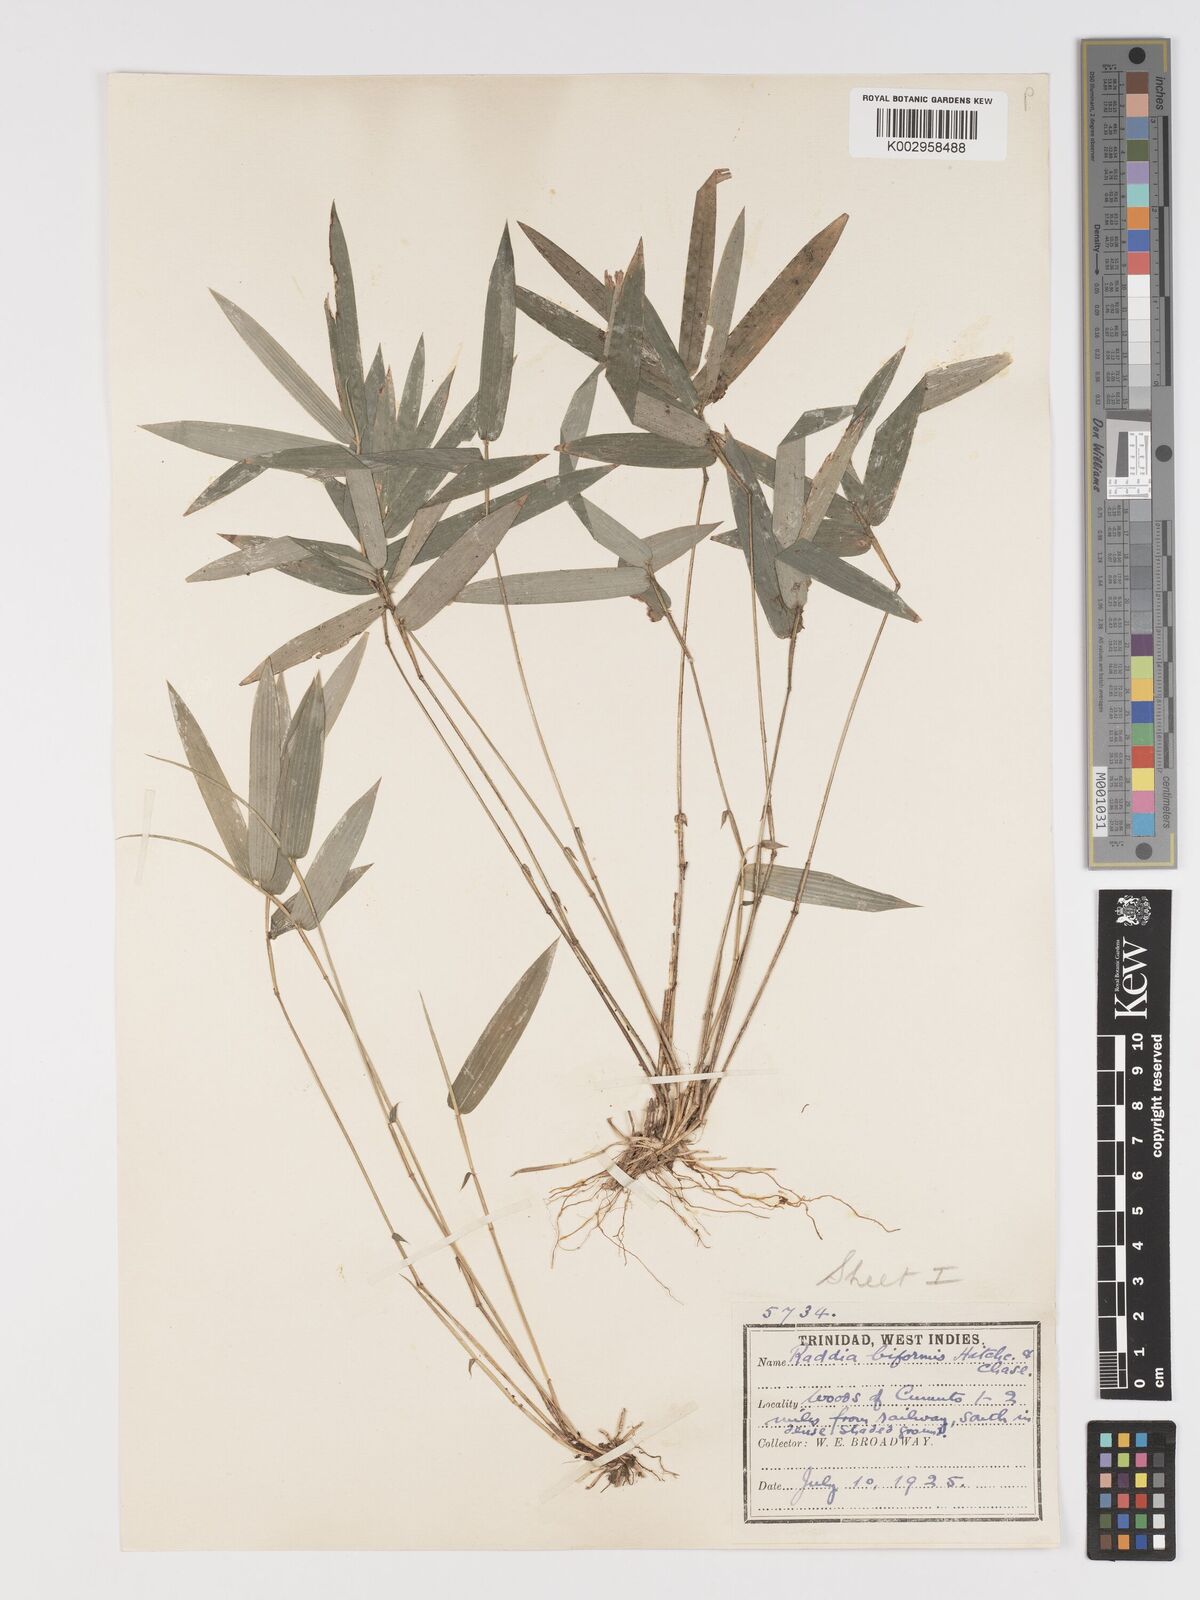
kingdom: Plantae
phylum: Tracheophyta
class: Liliopsida
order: Poales
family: Poaceae
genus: Piresia
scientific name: Piresia sympodica
